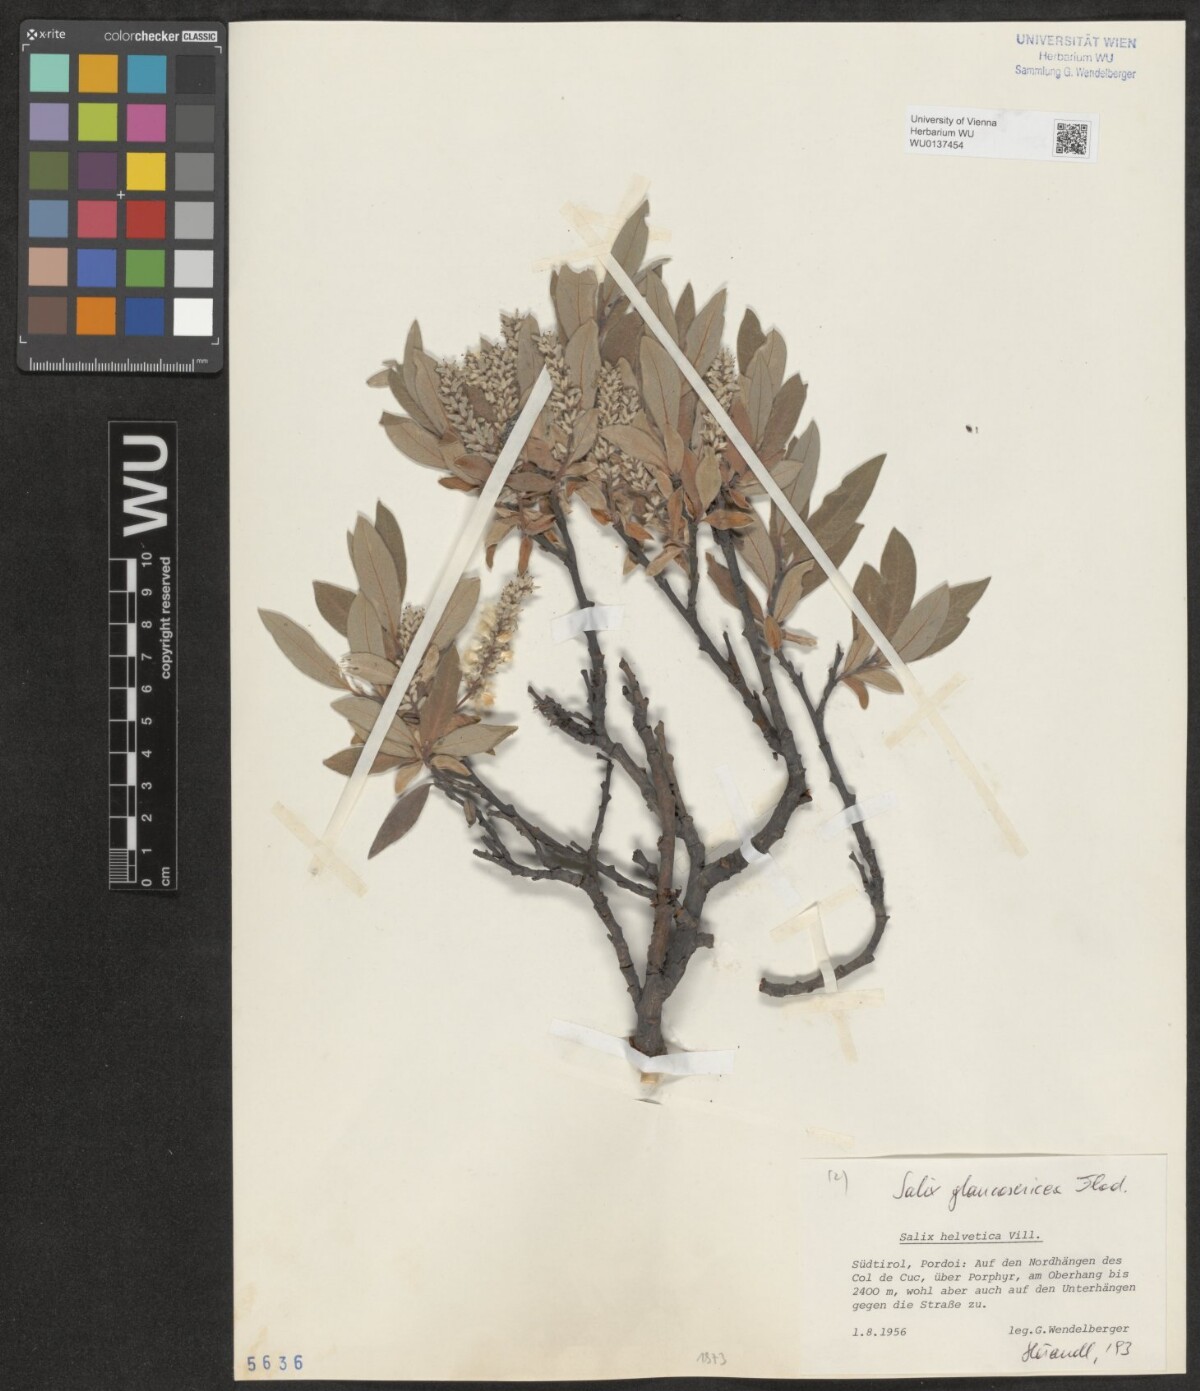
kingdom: Plantae
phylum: Tracheophyta
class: Magnoliopsida
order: Malpighiales
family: Salicaceae
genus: Salix
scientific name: Salix glaucosericea
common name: Alpine gray willow
